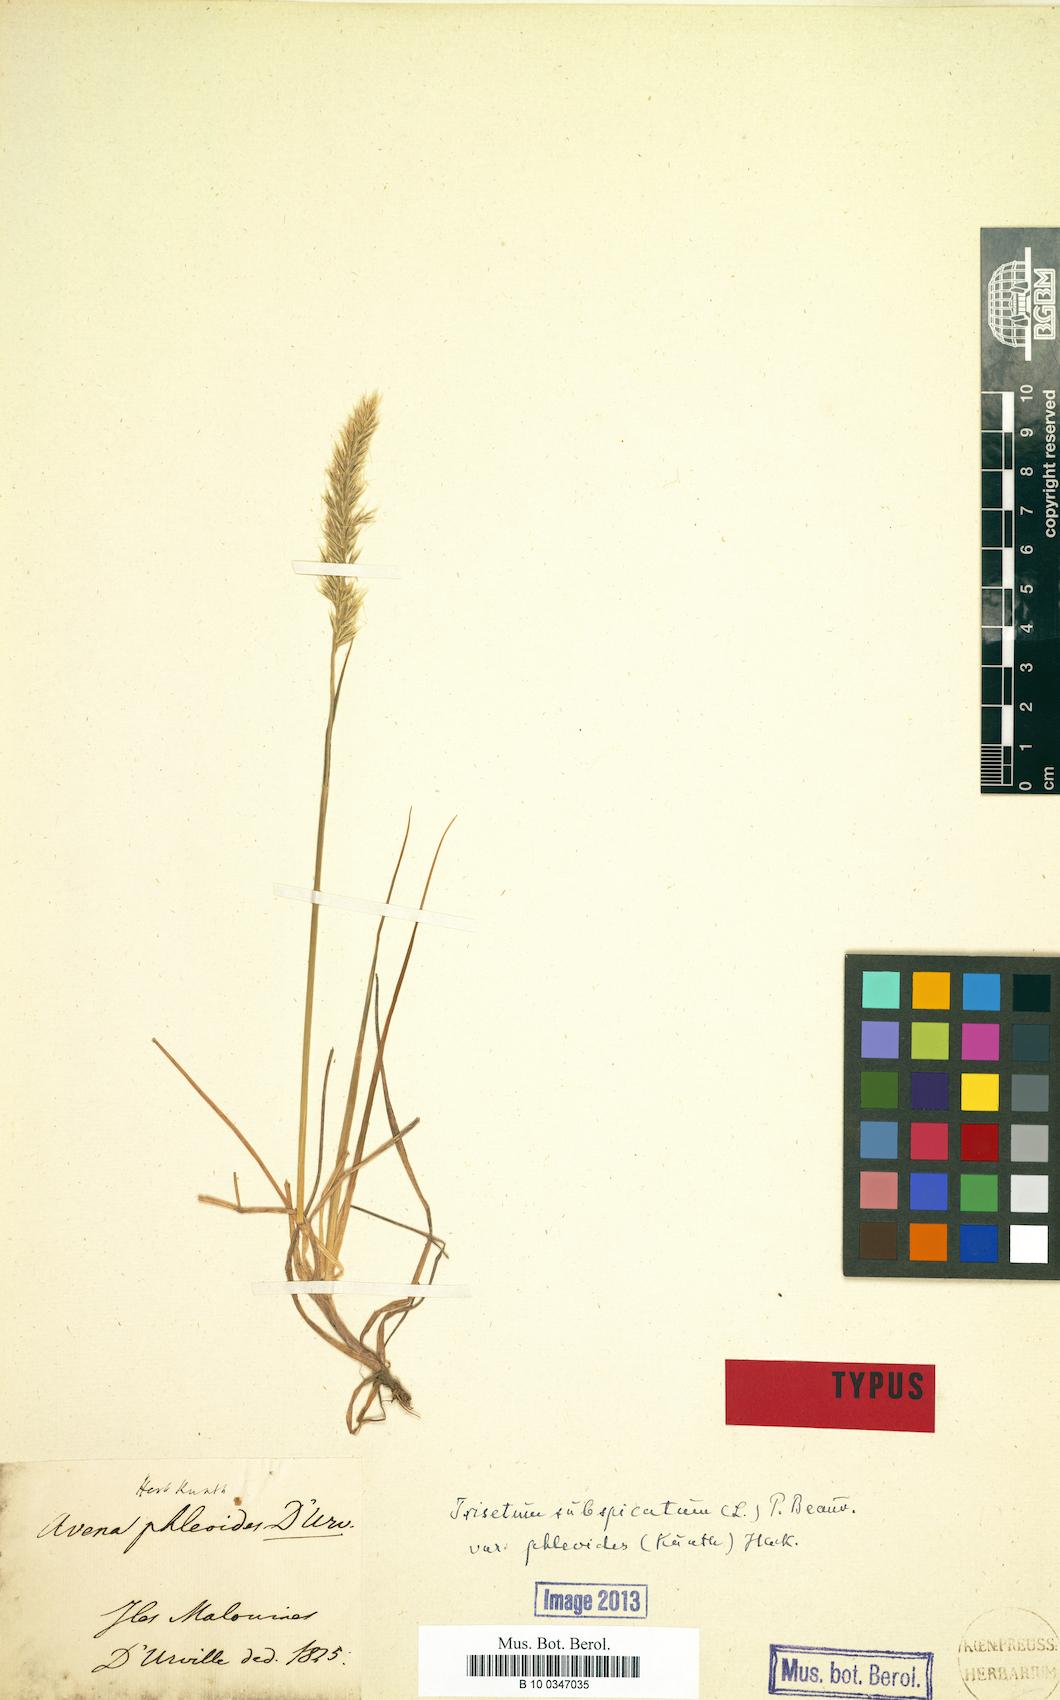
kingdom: Plantae
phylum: Tracheophyta
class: Liliopsida
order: Poales
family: Poaceae
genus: Koeleria
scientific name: Koeleria spicata
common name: Mountain trisetum
